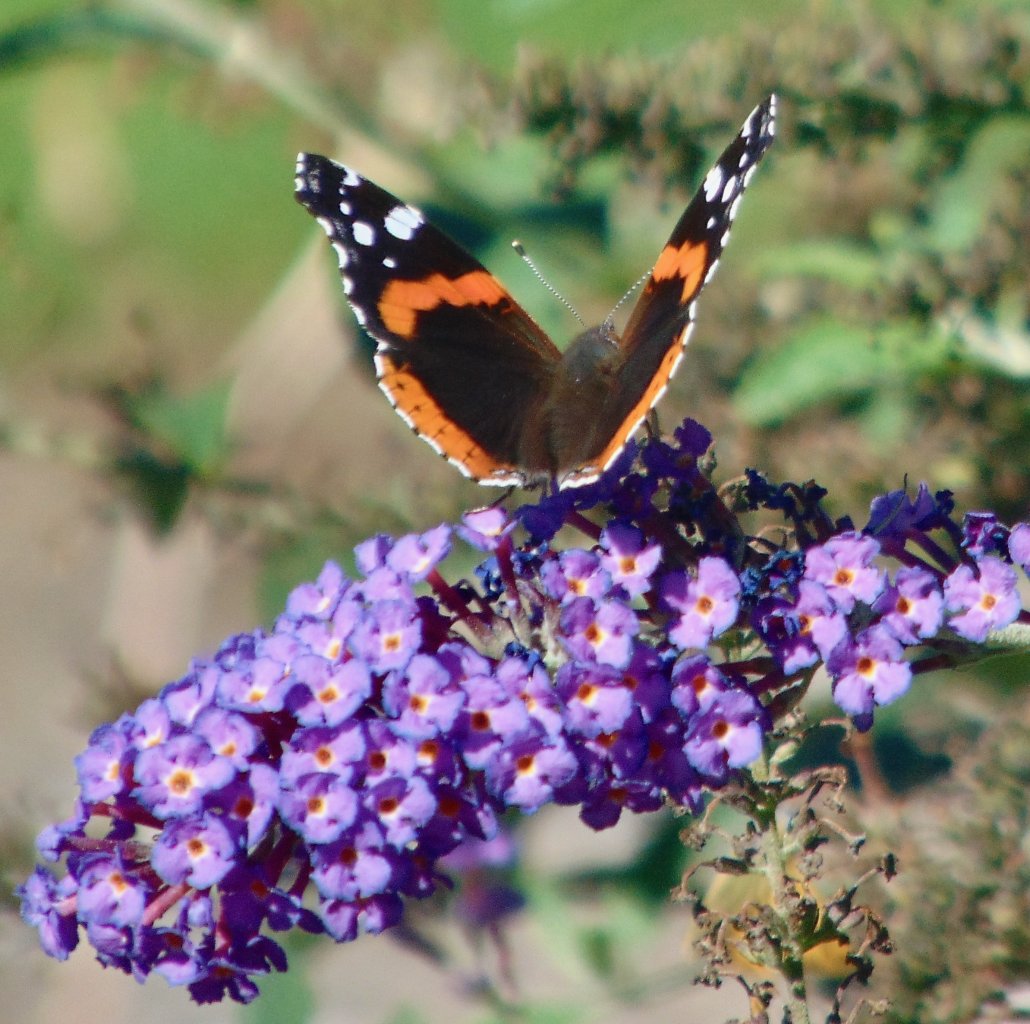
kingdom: Animalia
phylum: Arthropoda
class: Insecta
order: Lepidoptera
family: Nymphalidae
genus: Vanessa
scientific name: Vanessa atalanta
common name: Red Admiral
